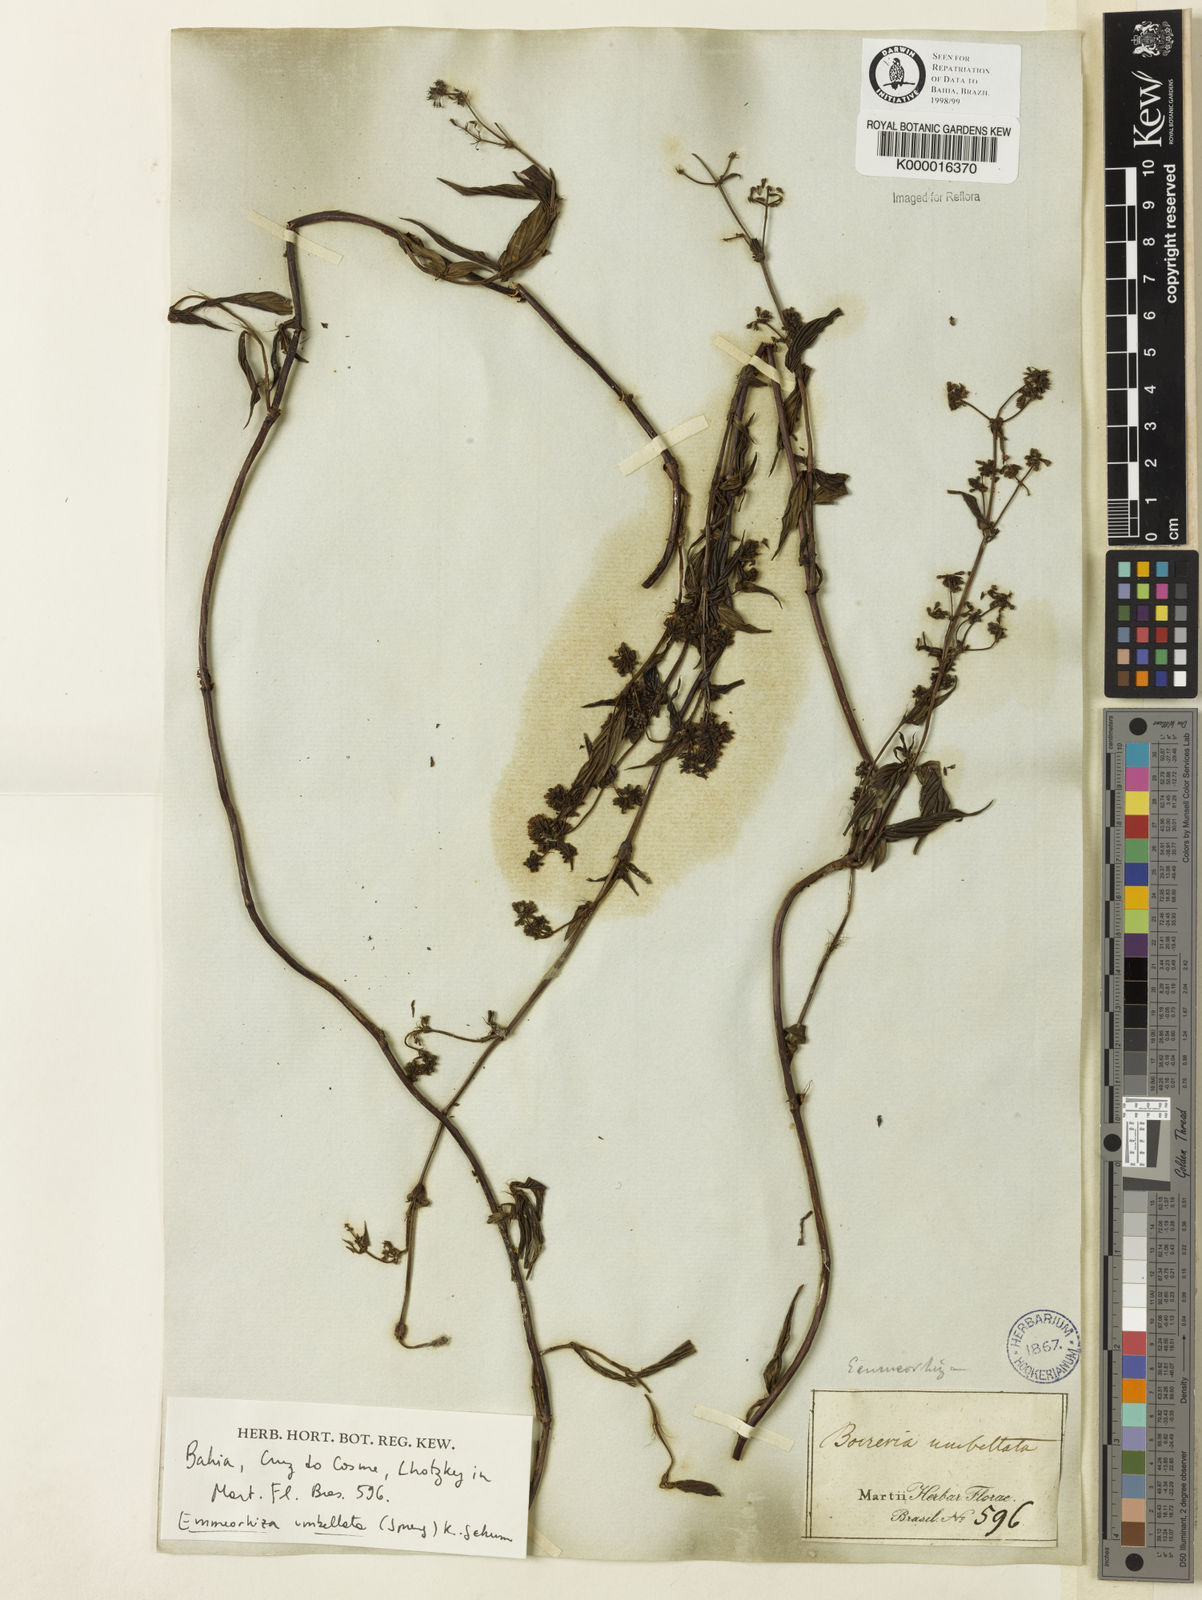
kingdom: Plantae
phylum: Tracheophyta
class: Magnoliopsida
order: Gentianales
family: Rubiaceae
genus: Emmeorhiza
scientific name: Emmeorhiza umbellata
